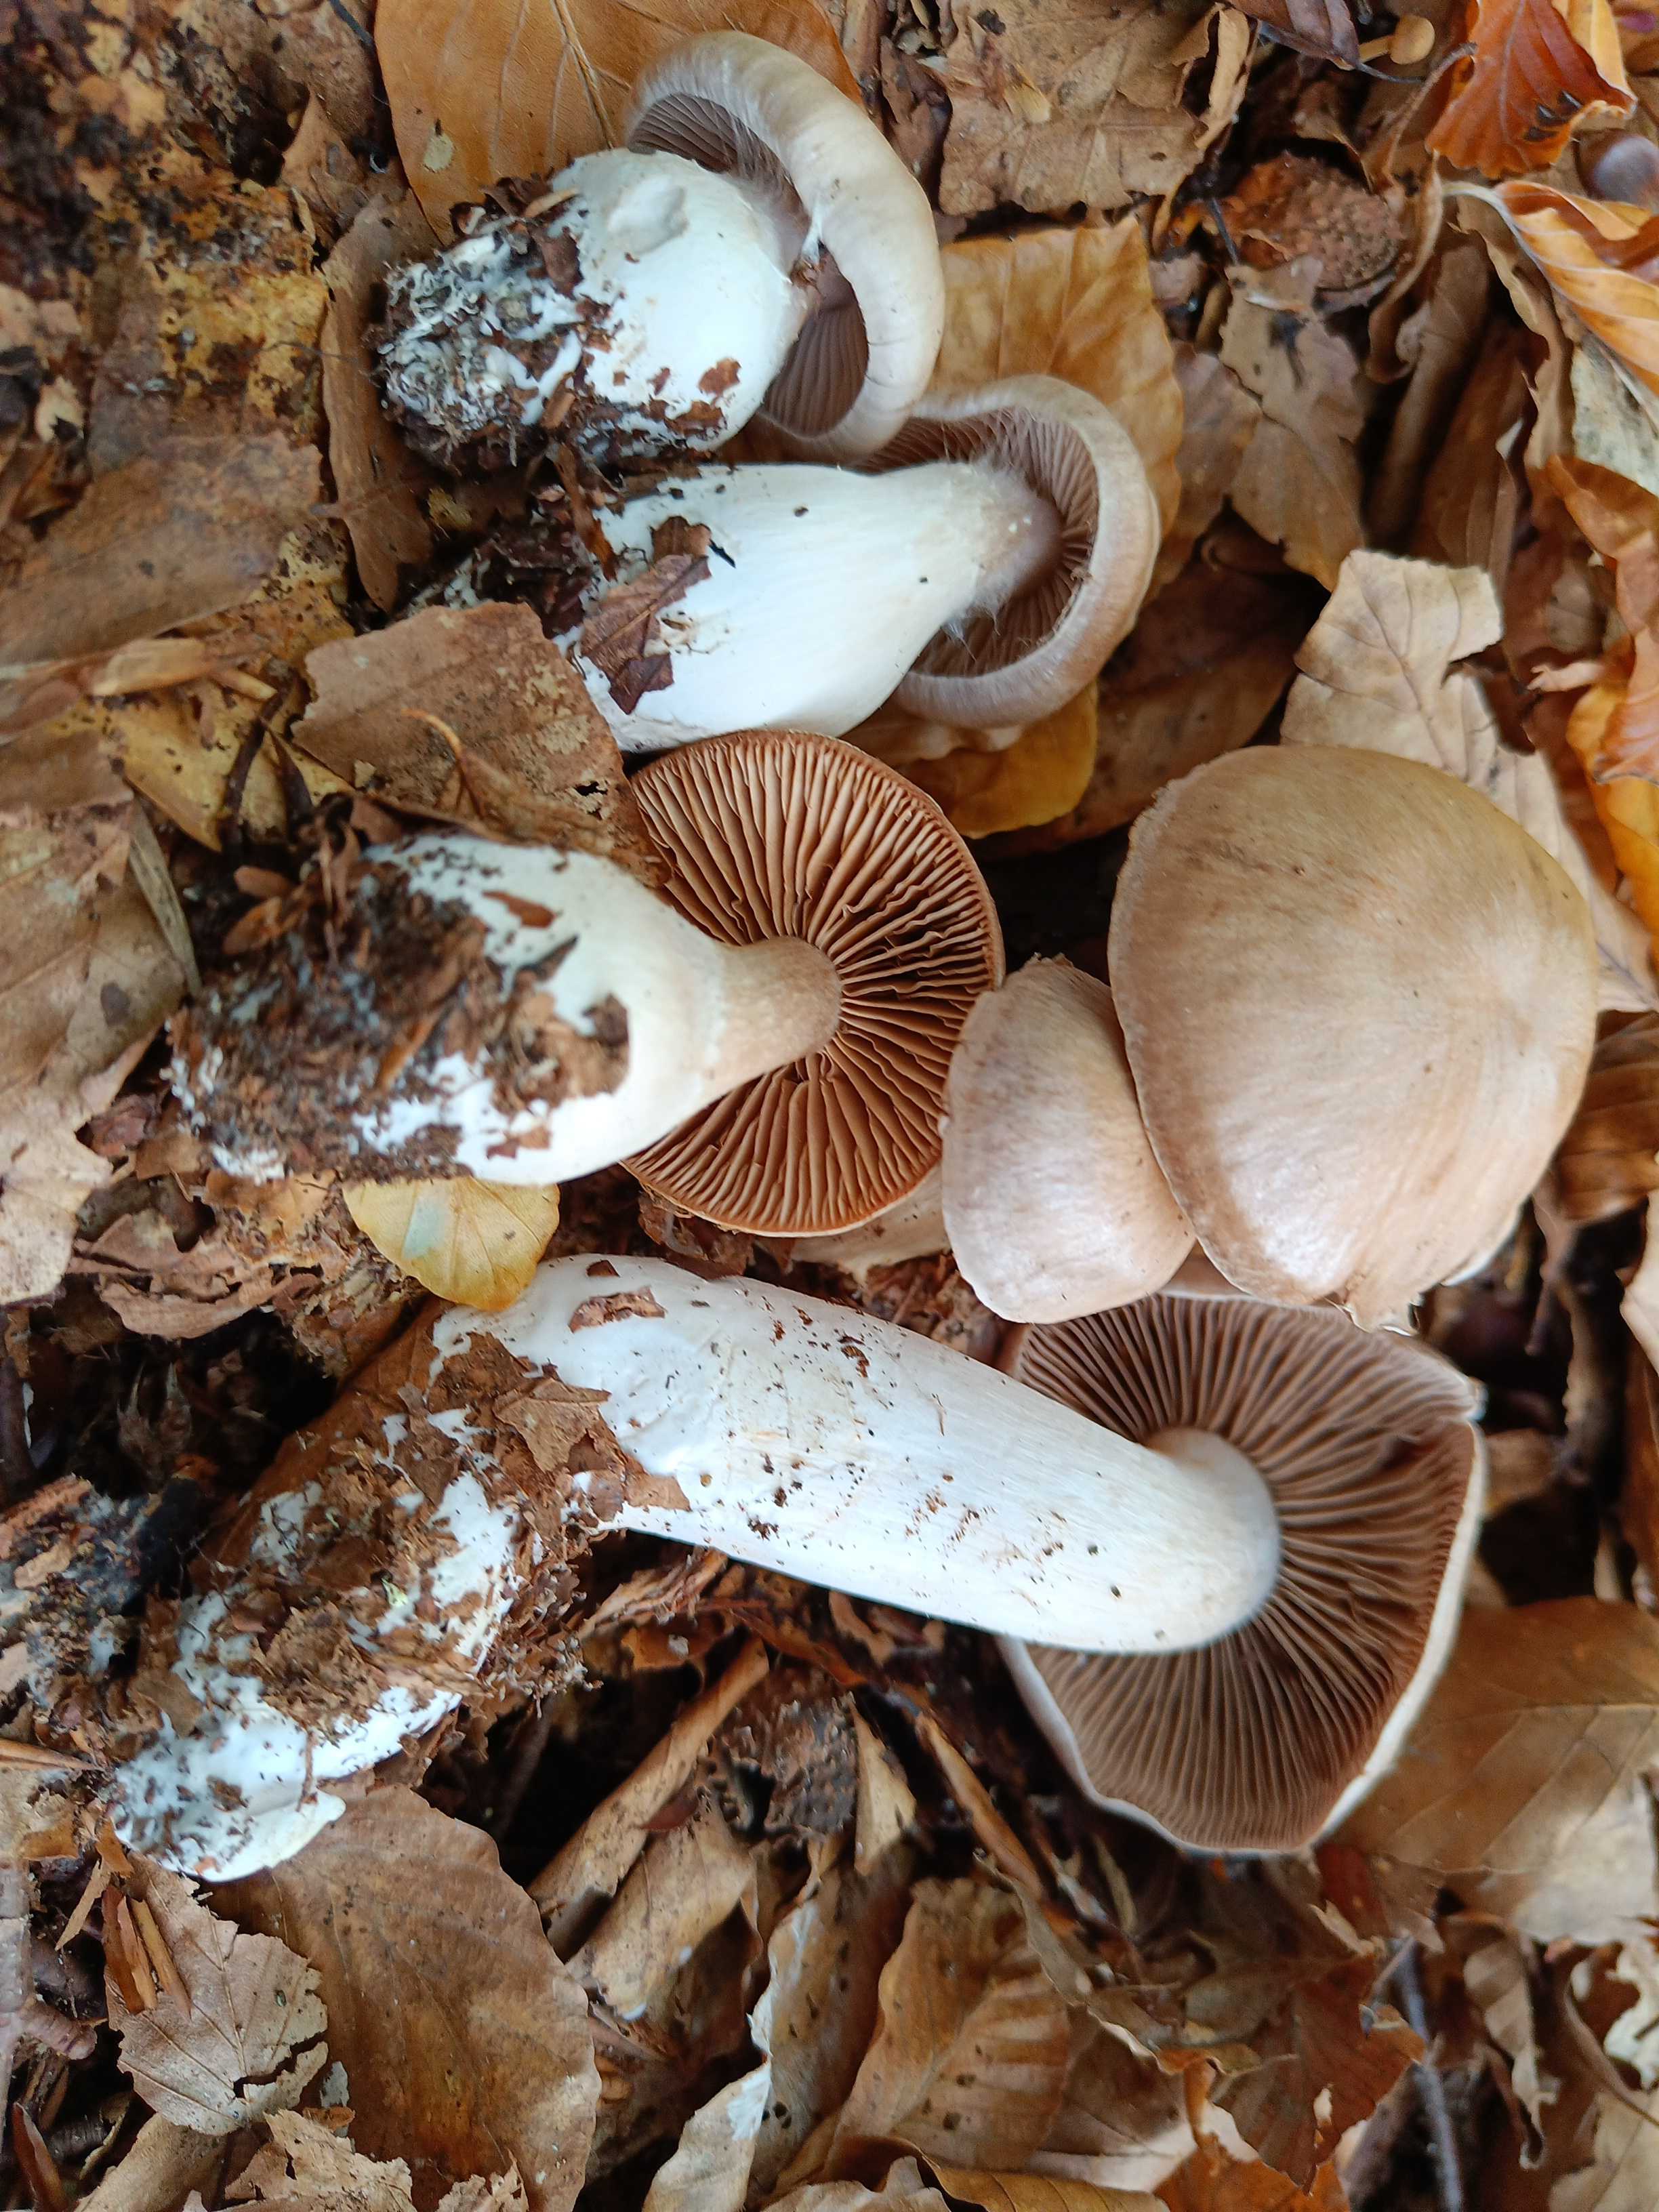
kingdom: Fungi
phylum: Basidiomycota
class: Agaricomycetes
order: Agaricales
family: Cortinariaceae
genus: Cortinarius
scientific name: Cortinarius turgidulus
